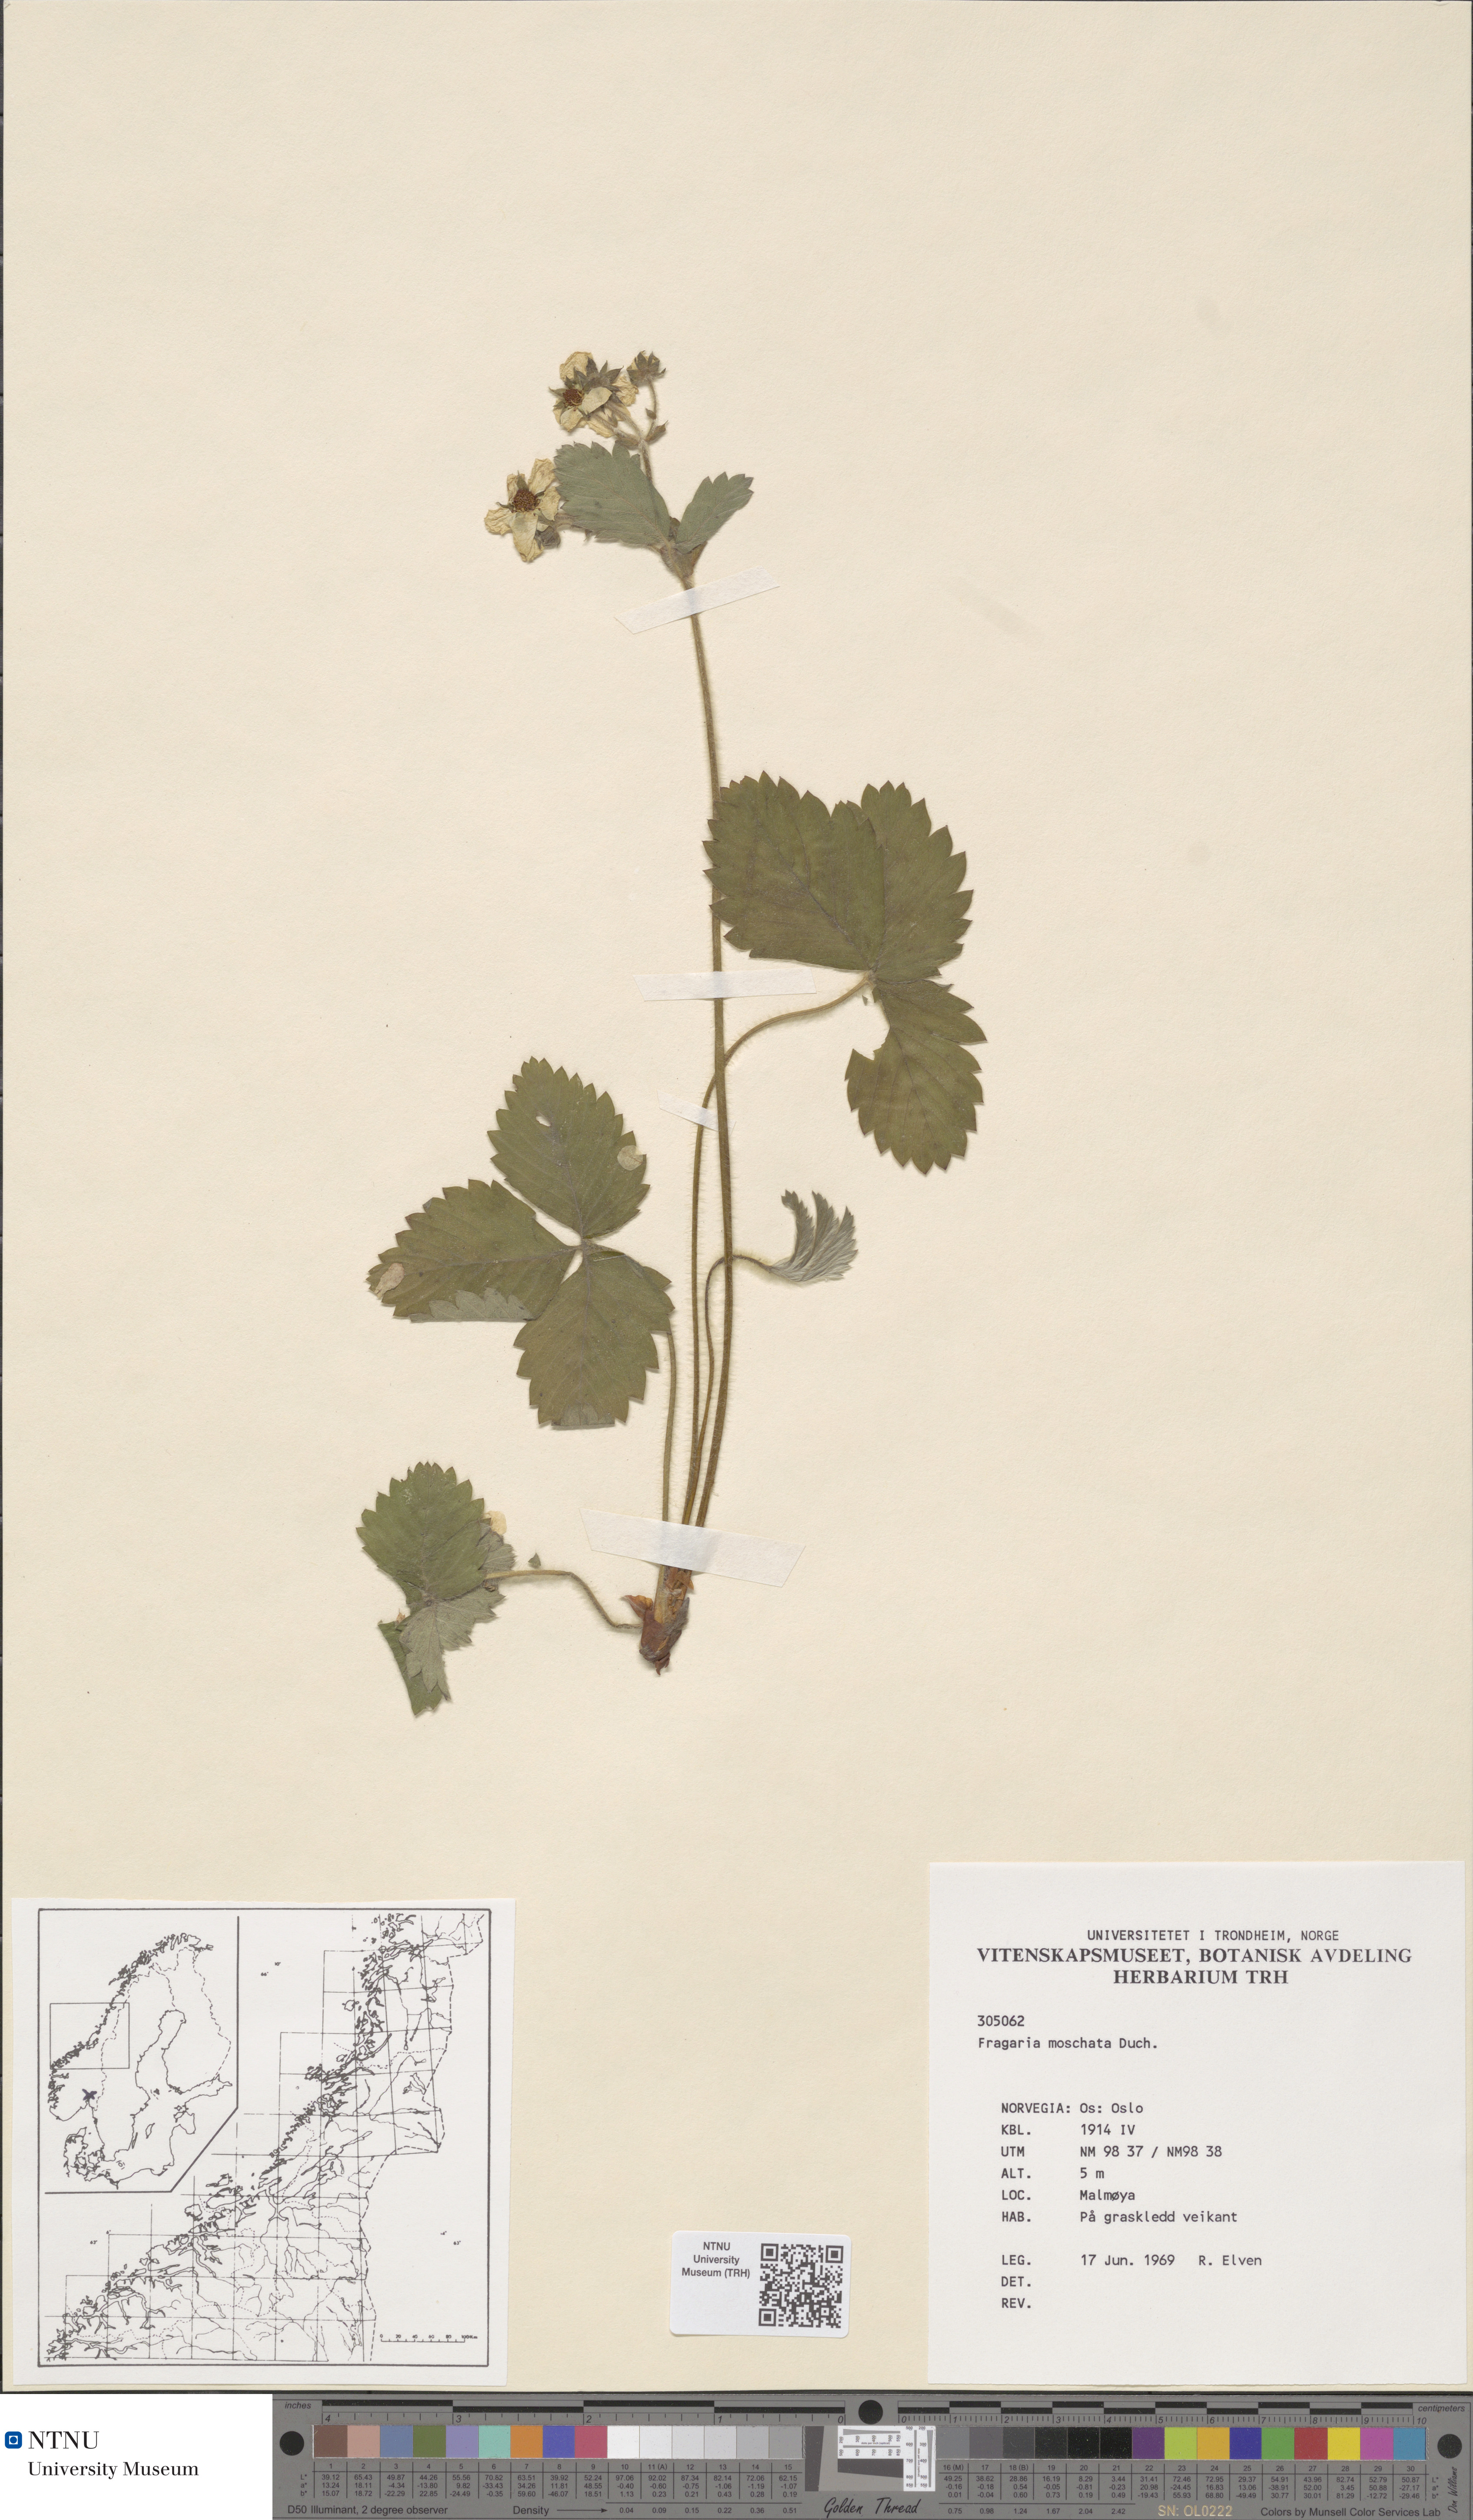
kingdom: Plantae
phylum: Tracheophyta
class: Magnoliopsida
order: Rosales
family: Rosaceae
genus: Fragaria
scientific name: Fragaria moschata
